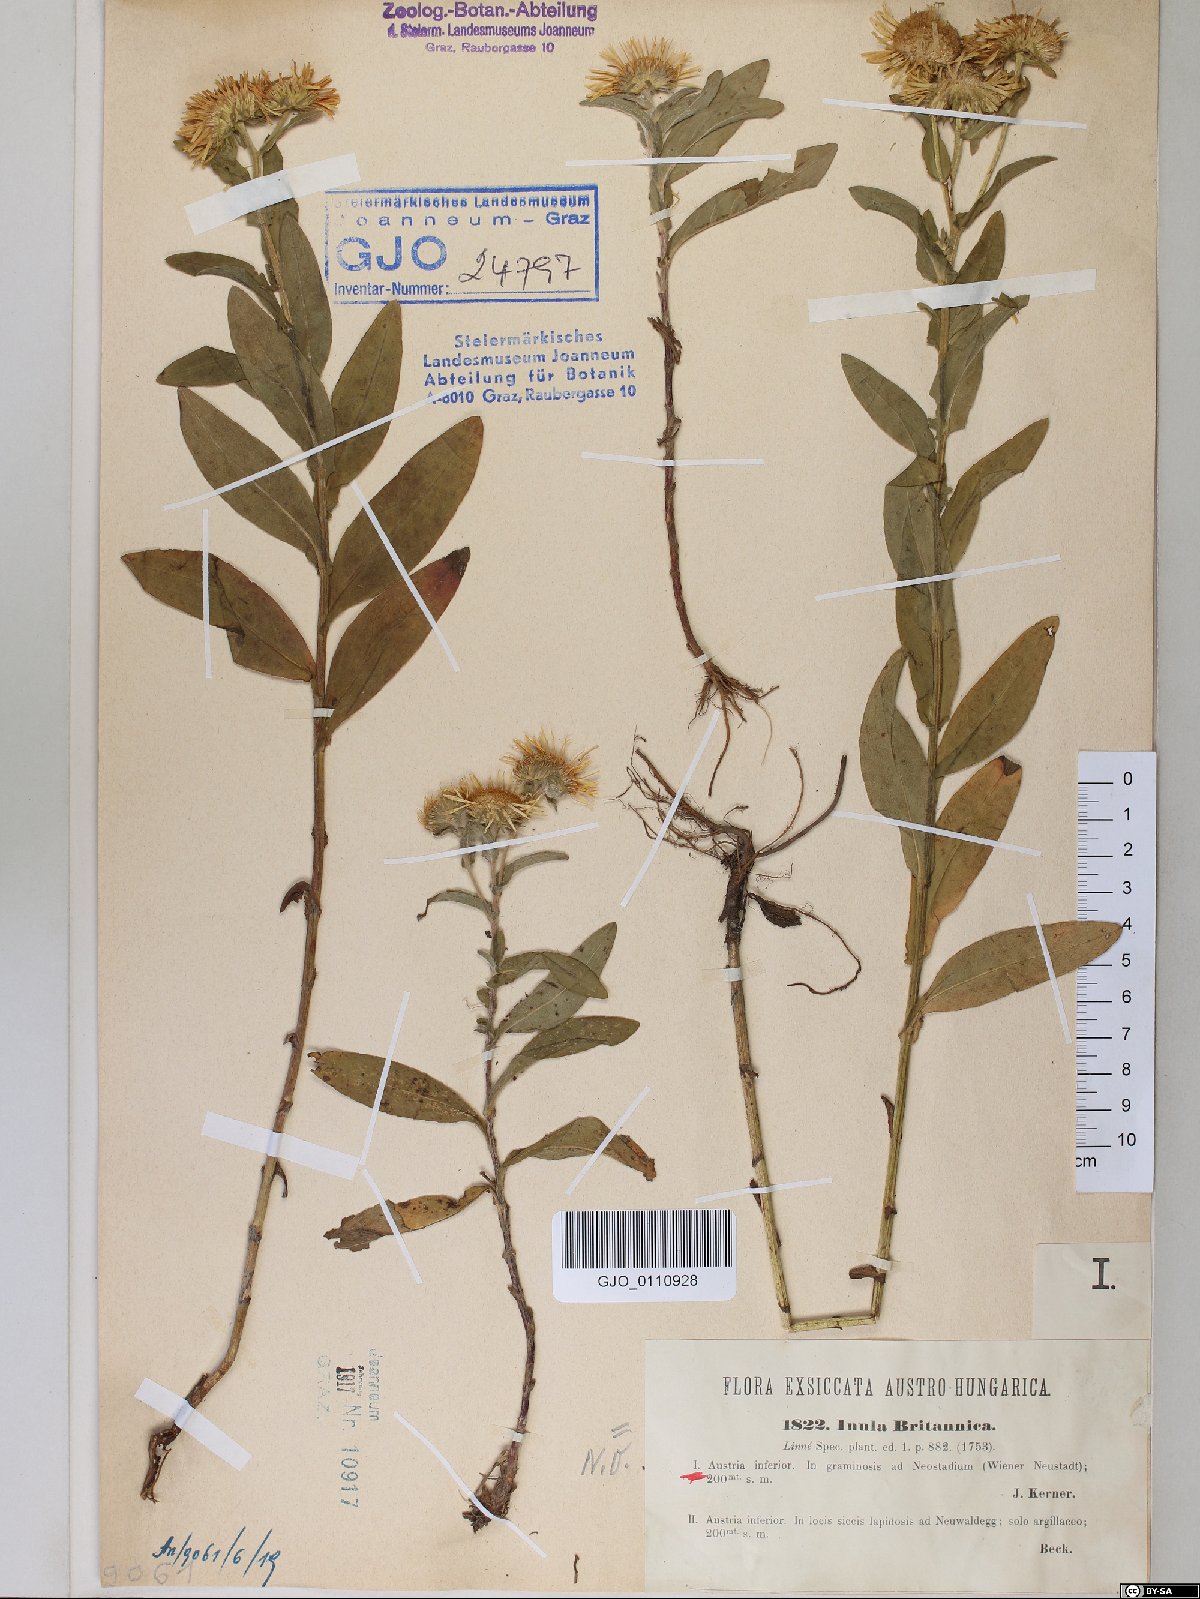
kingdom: Plantae
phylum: Tracheophyta
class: Magnoliopsida
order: Asterales
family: Asteraceae
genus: Pentanema
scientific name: Pentanema britannicum
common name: British elecampane
